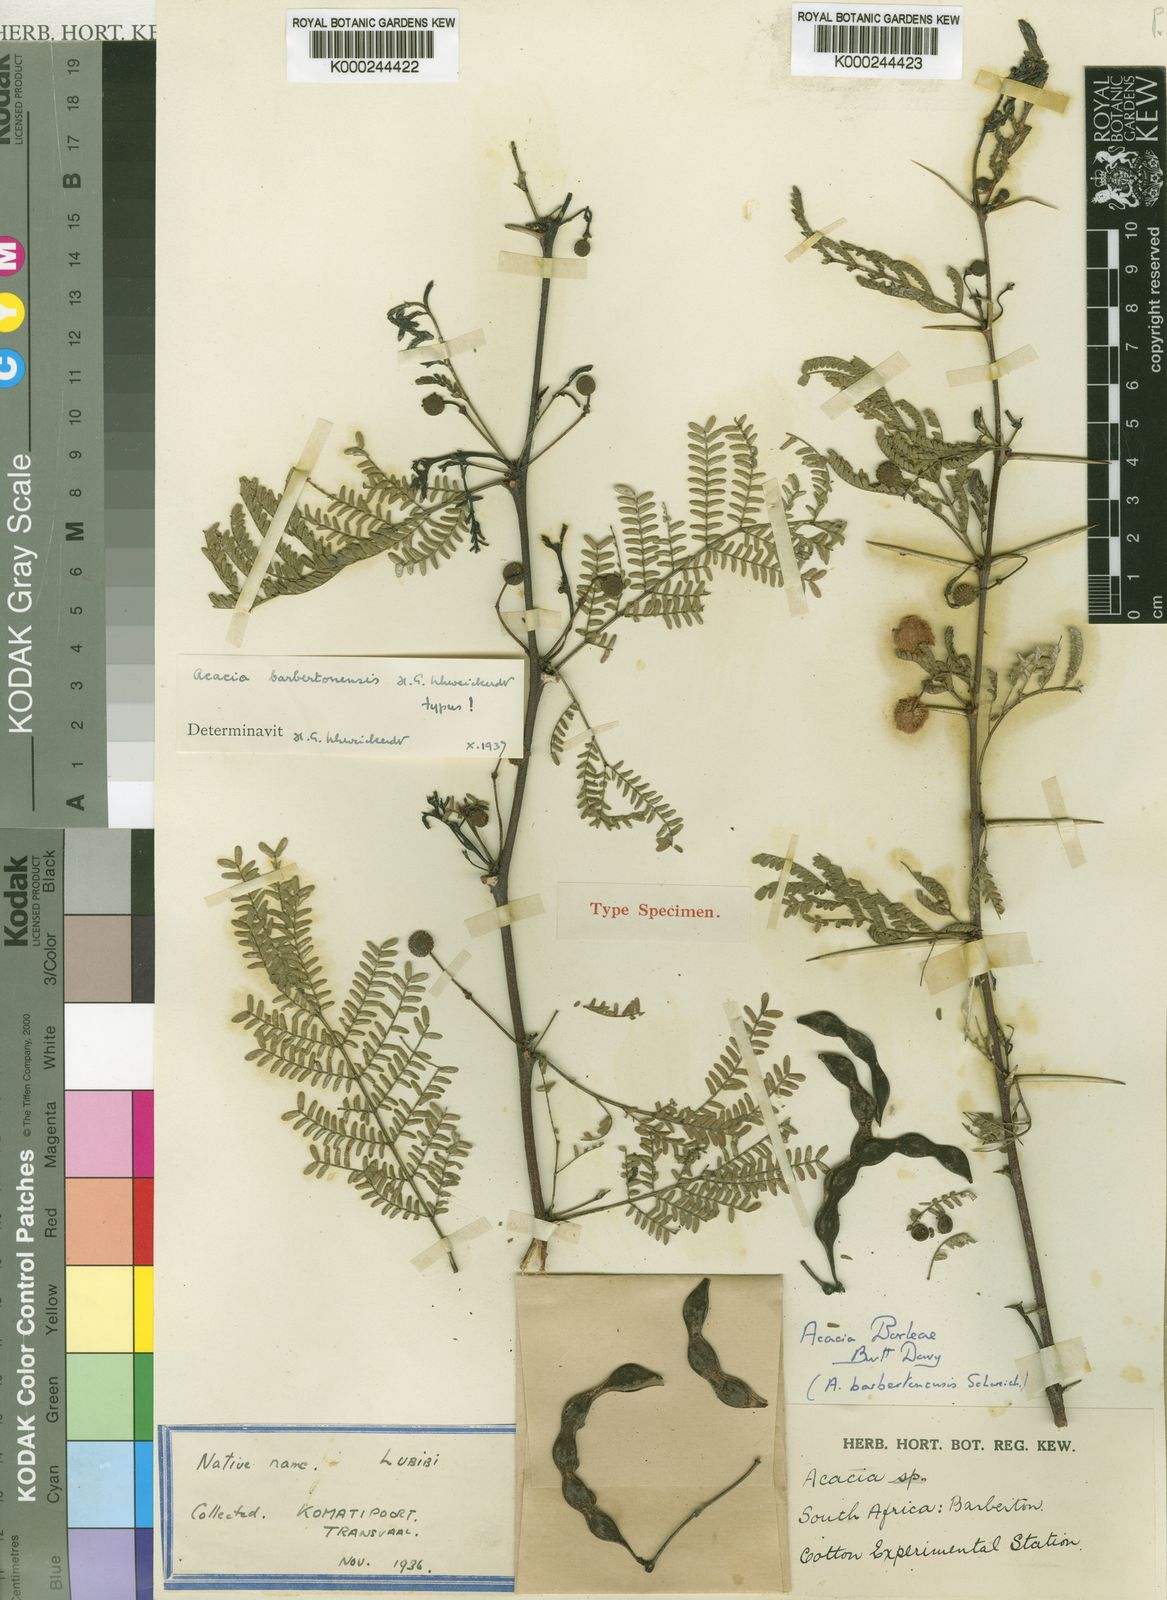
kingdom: Plantae
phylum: Tracheophyta
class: Magnoliopsida
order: Fabales
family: Fabaceae
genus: Acacia
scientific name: Acacia
